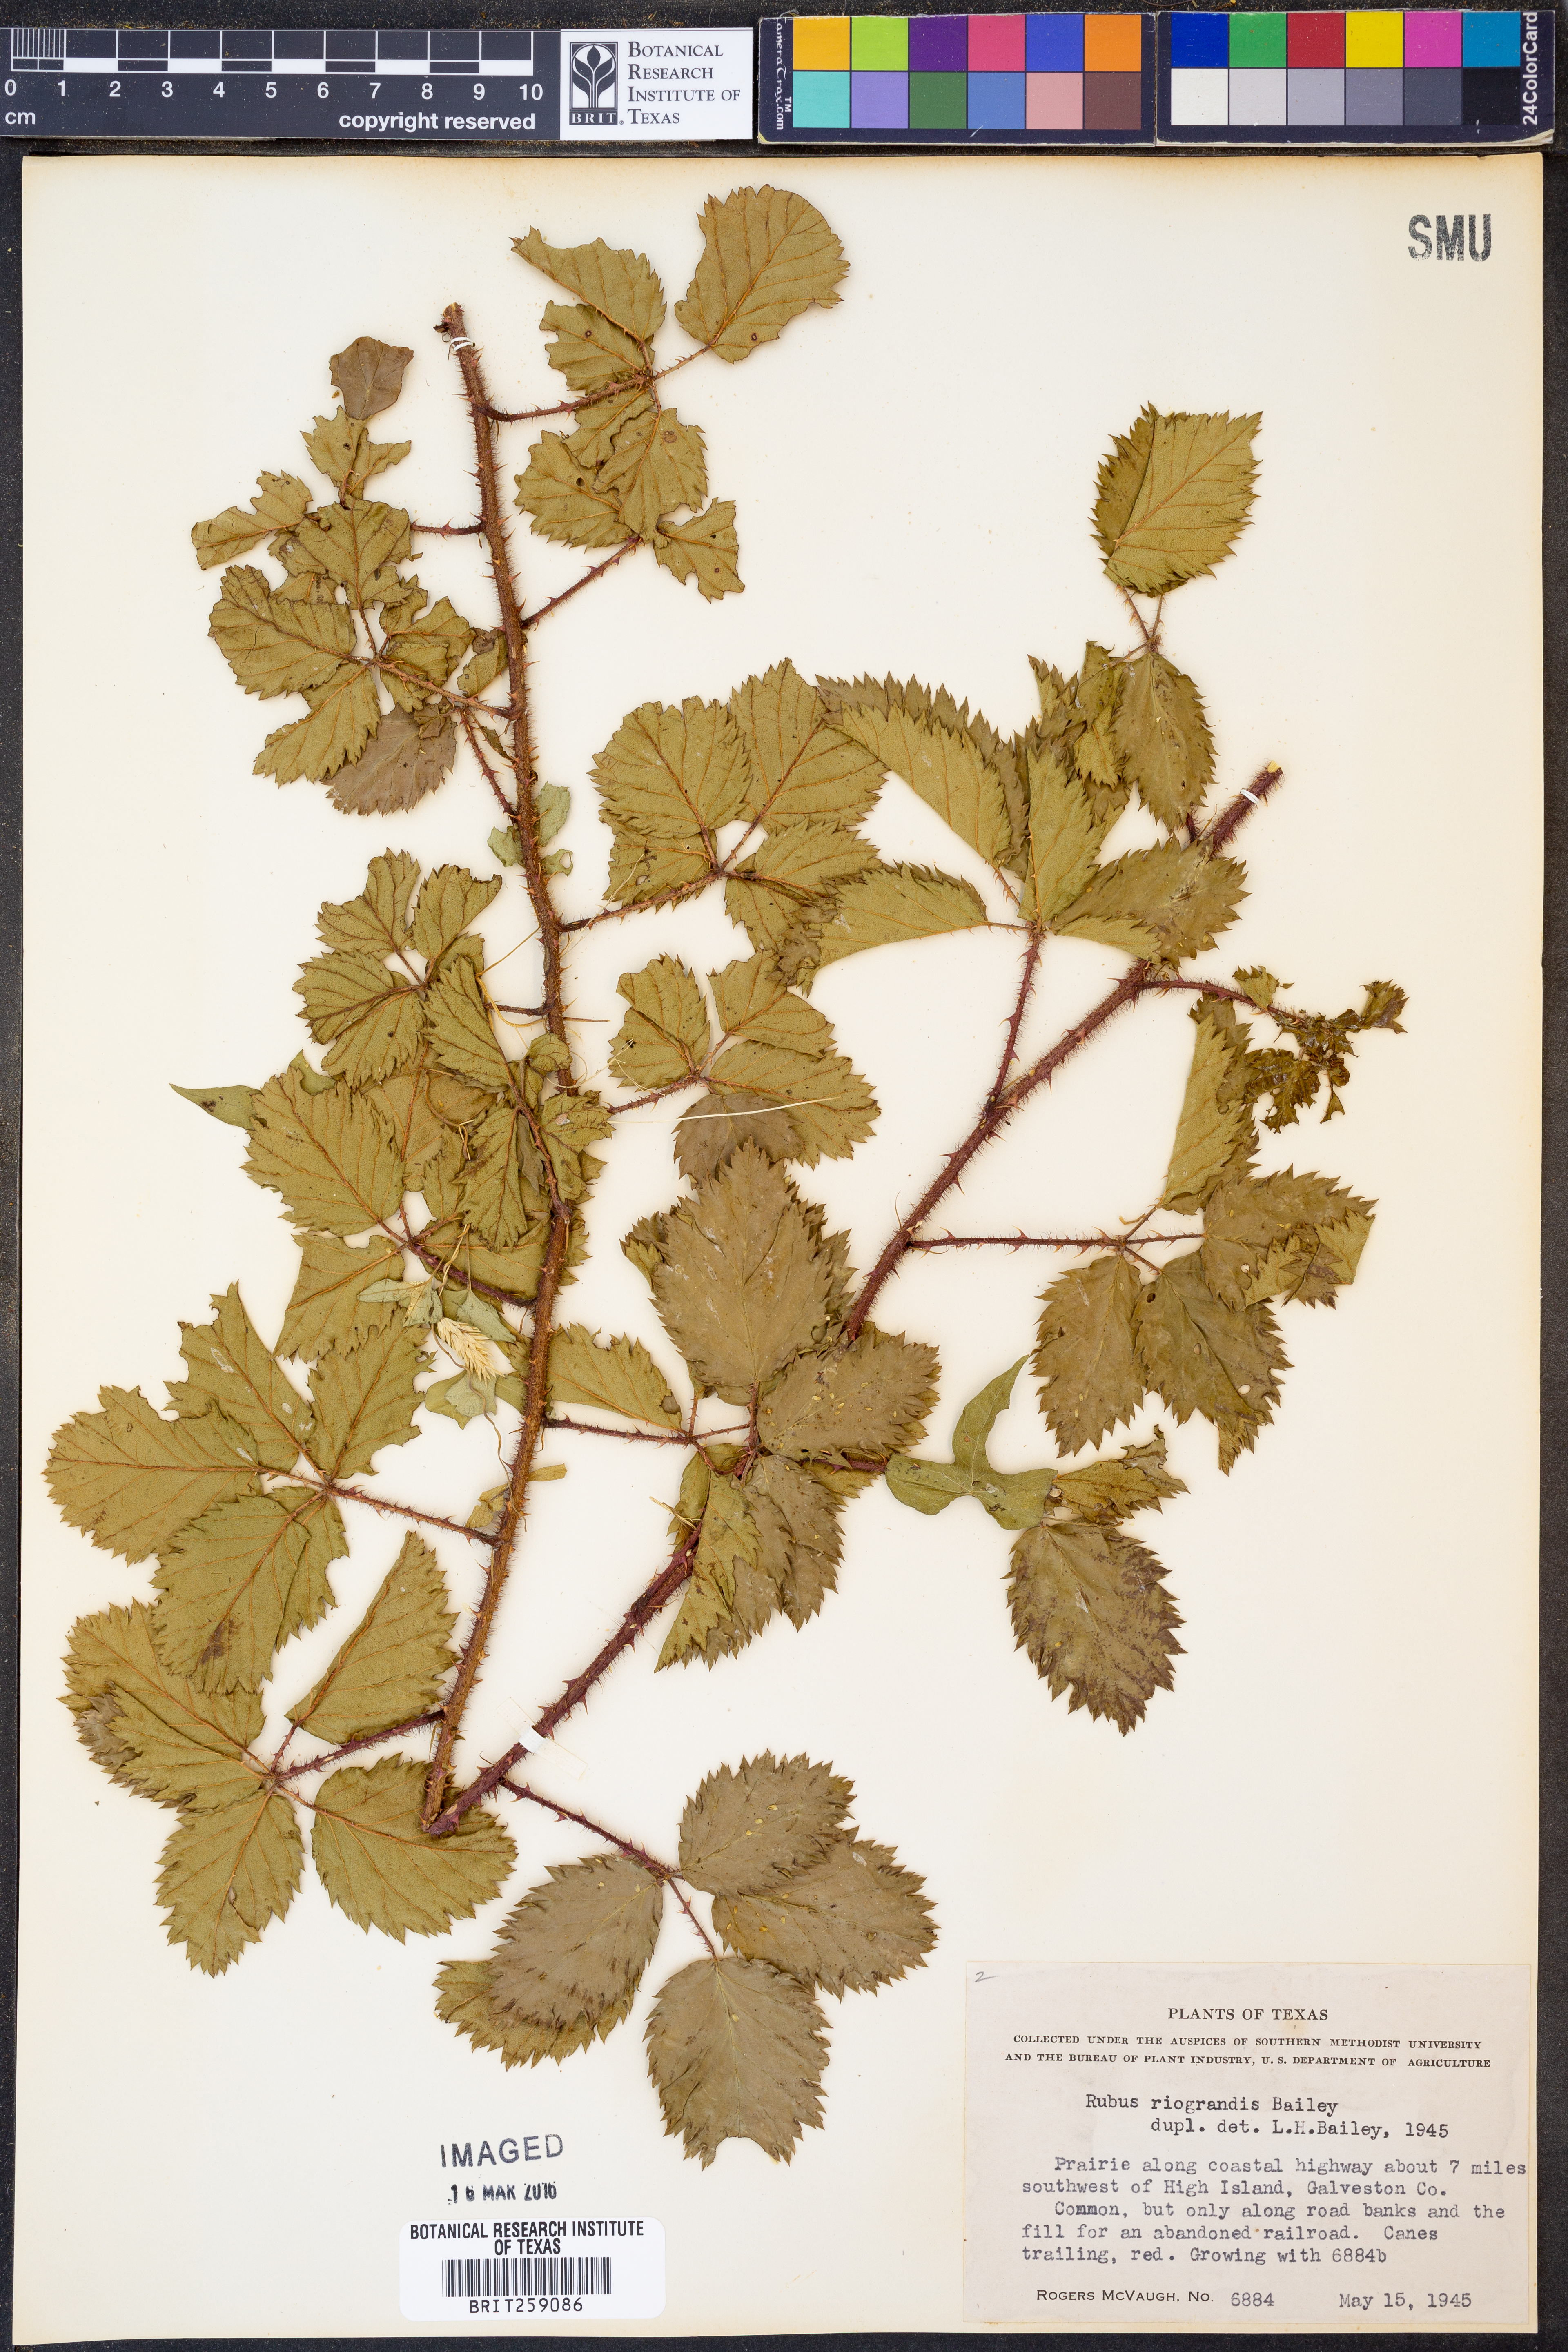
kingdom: Plantae
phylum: Tracheophyta
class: Magnoliopsida
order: Rosales
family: Rosaceae
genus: Rubus
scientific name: Rubus riograndis
